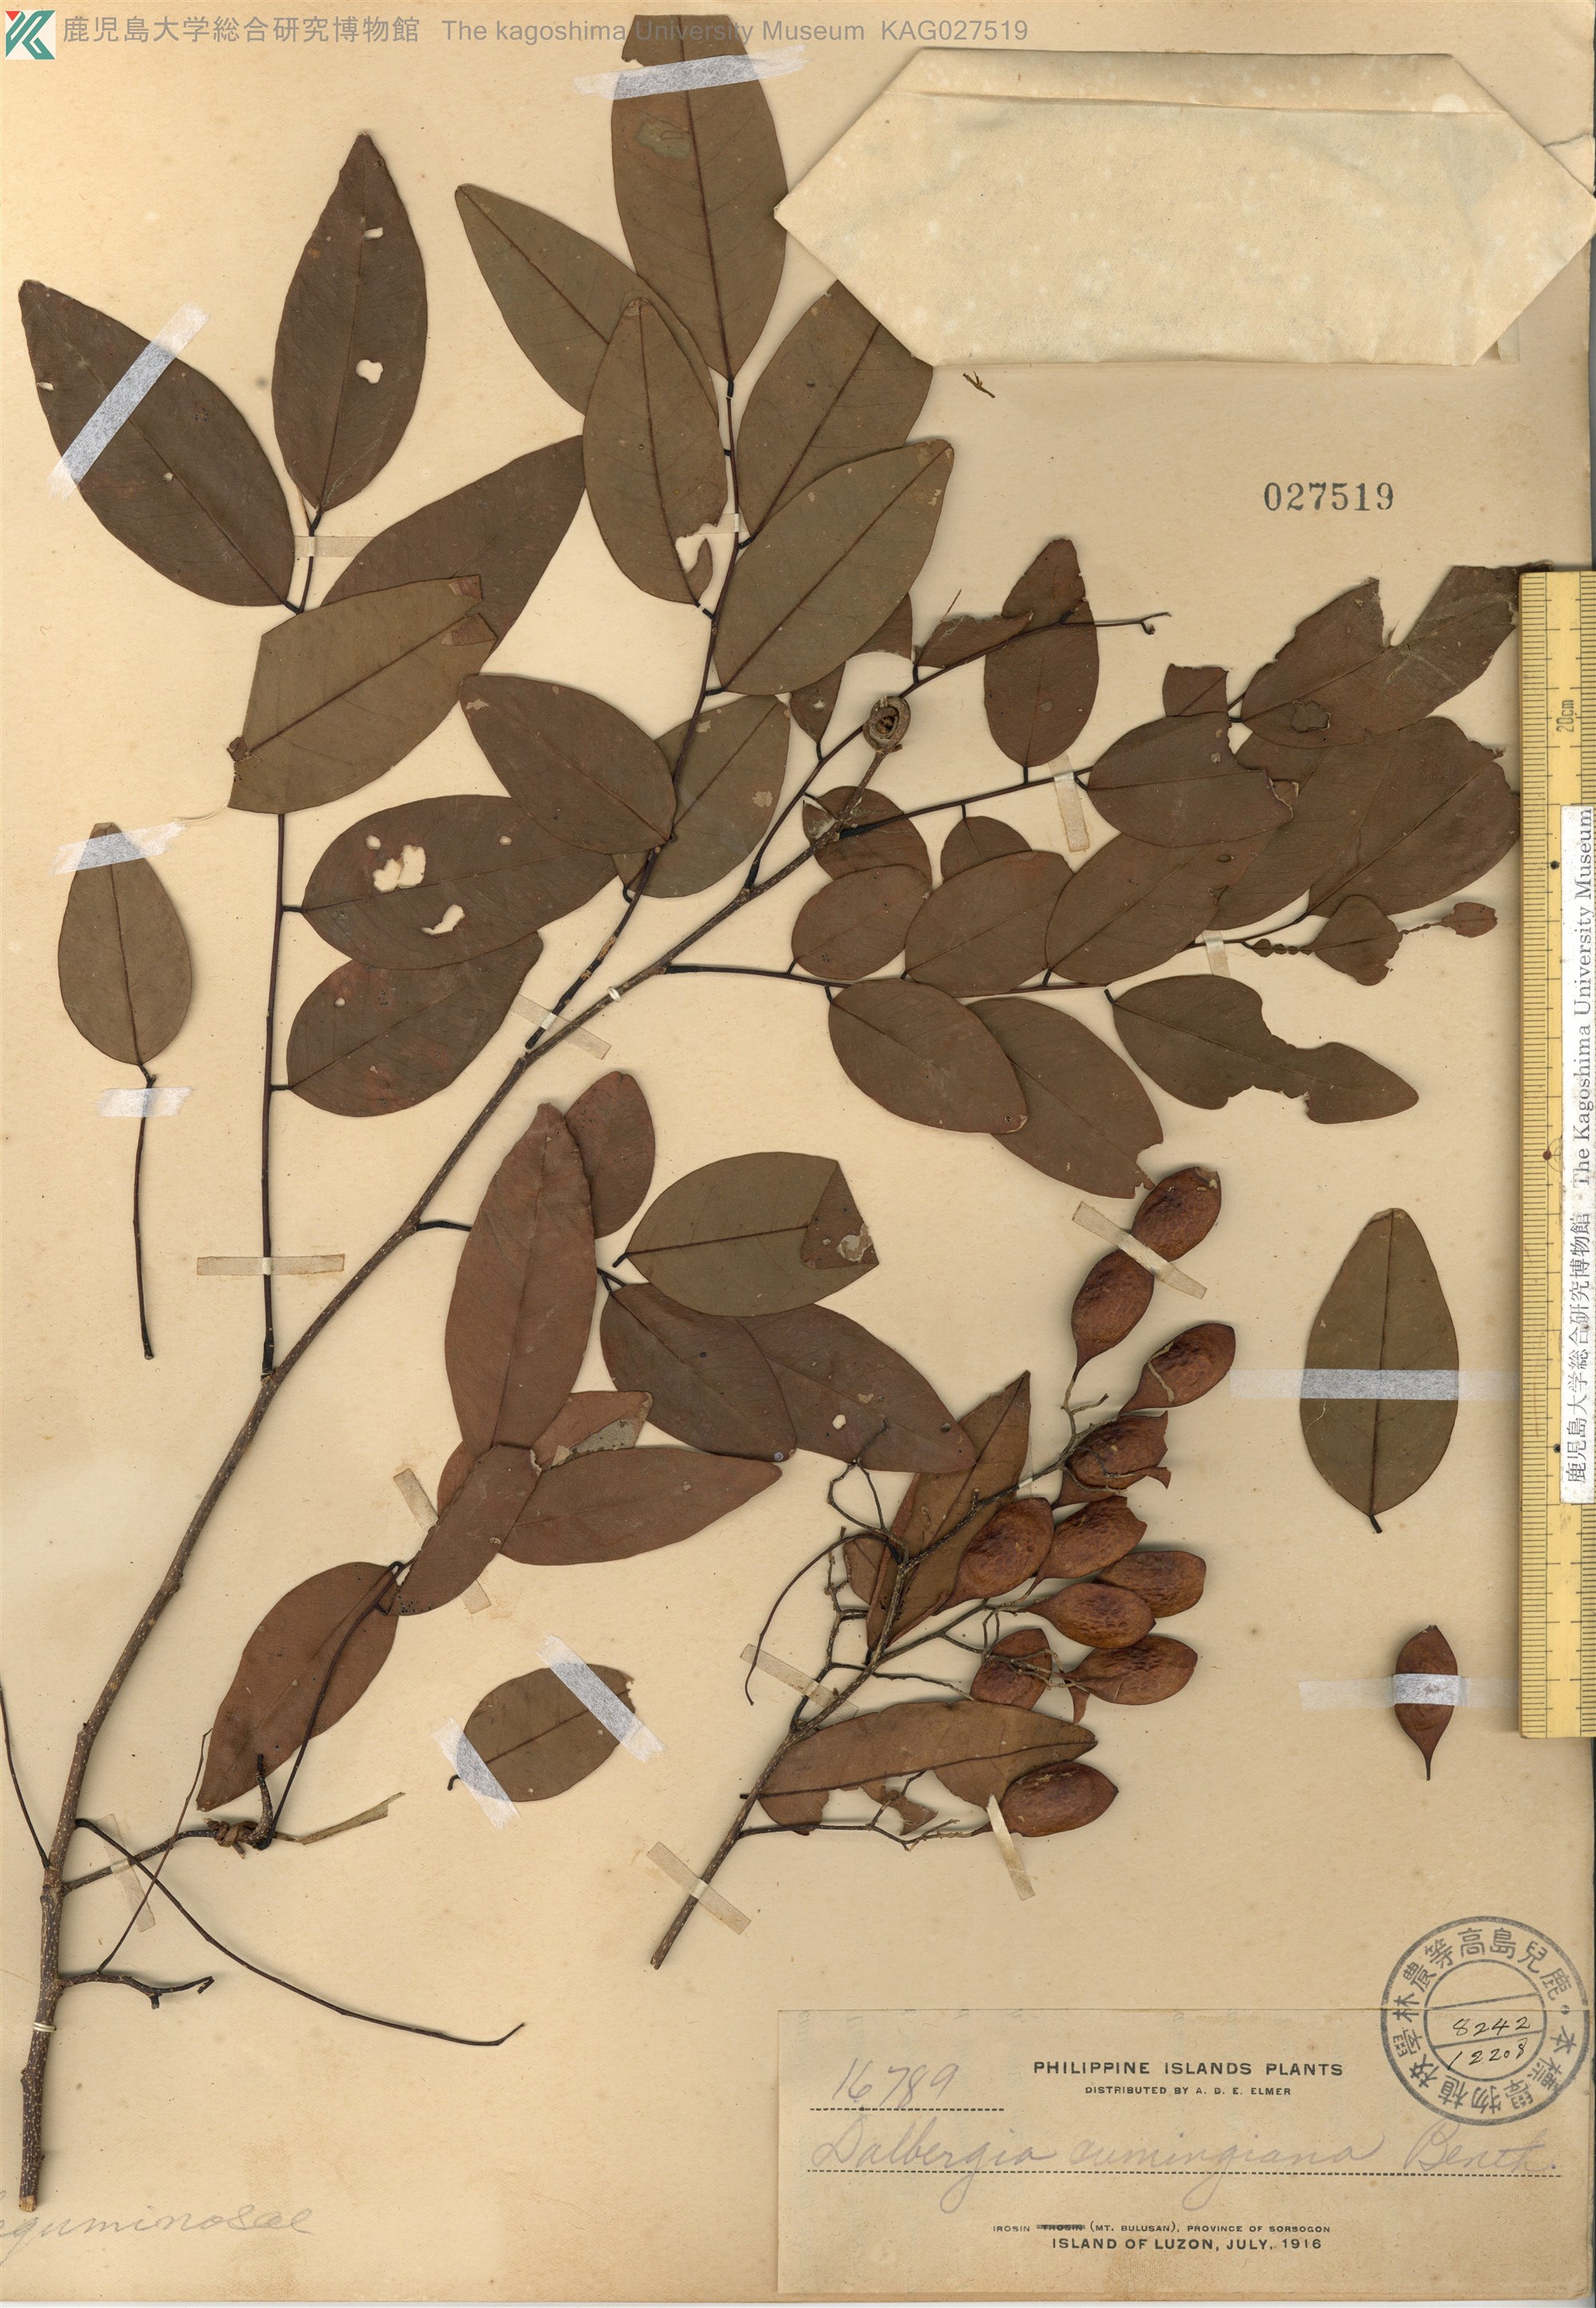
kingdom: Plantae
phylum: Tracheophyta
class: Magnoliopsida
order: Fabales
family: Fabaceae
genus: Dalbergia
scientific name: Dalbergia cumingiana
